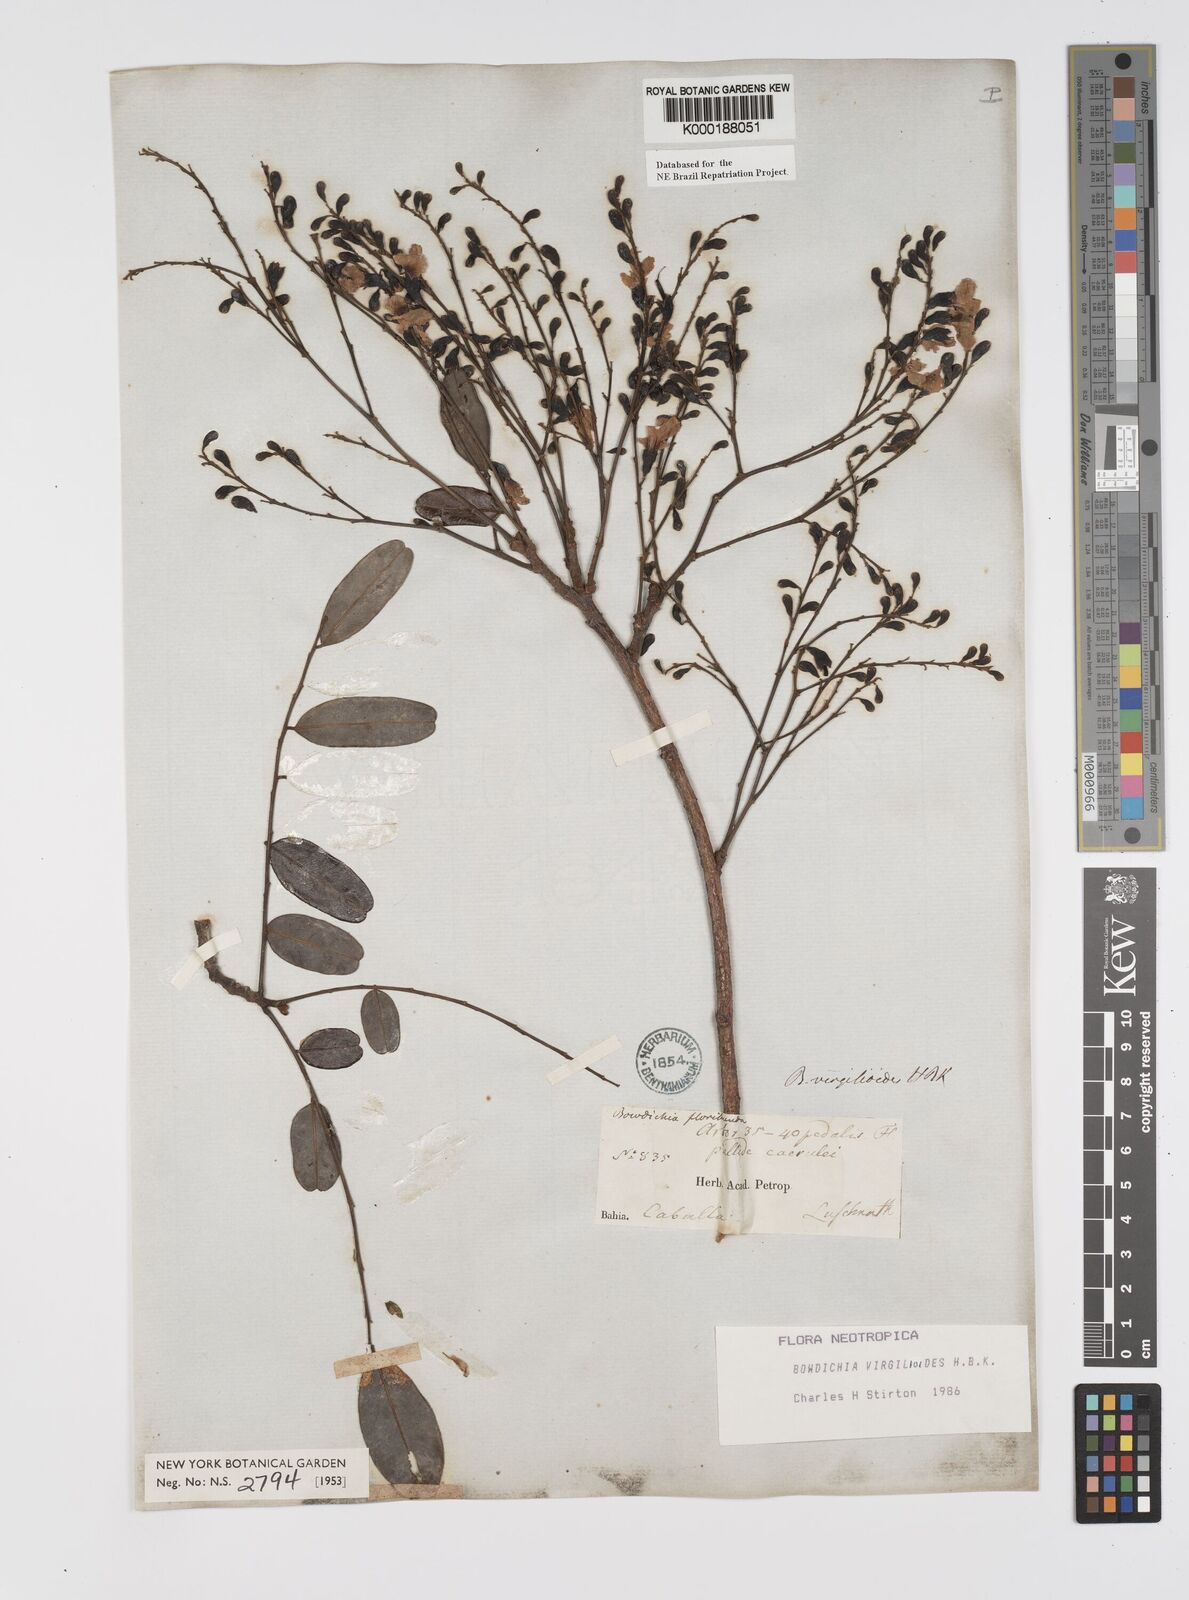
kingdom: Plantae
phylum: Tracheophyta
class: Magnoliopsida
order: Fabales
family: Fabaceae
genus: Bowdichia
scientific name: Bowdichia virgilioides
